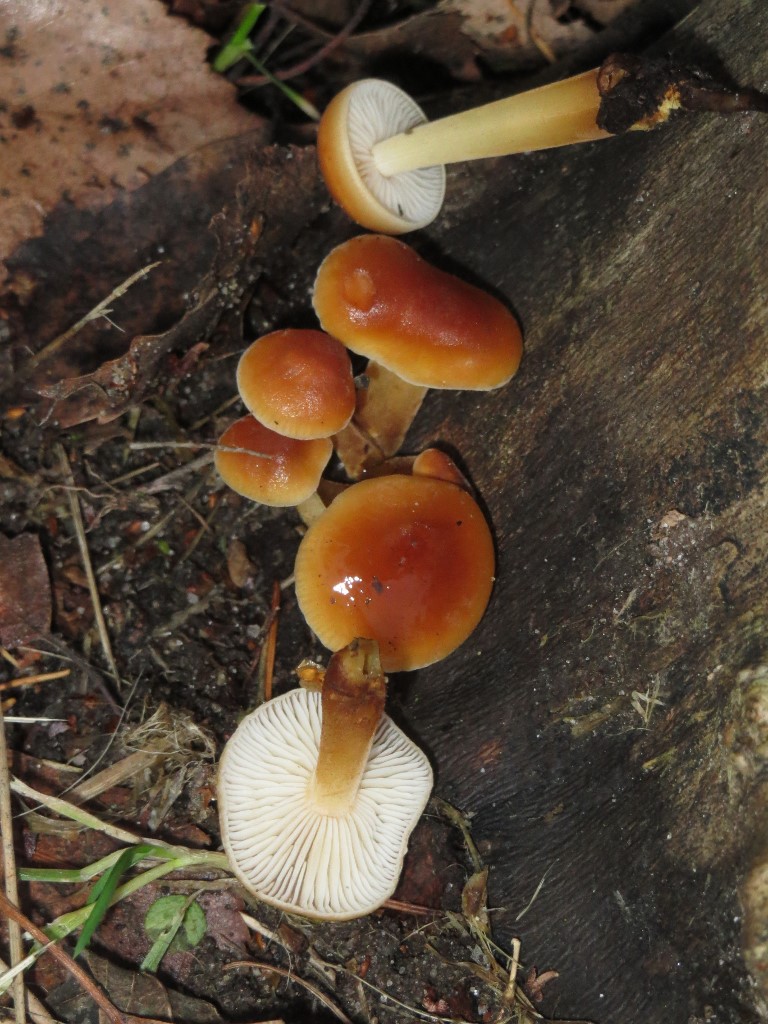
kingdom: Fungi
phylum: Basidiomycota
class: Agaricomycetes
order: Agaricales
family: Physalacriaceae
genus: Flammulina
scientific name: Flammulina velutipes
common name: gul fløjlsfod
